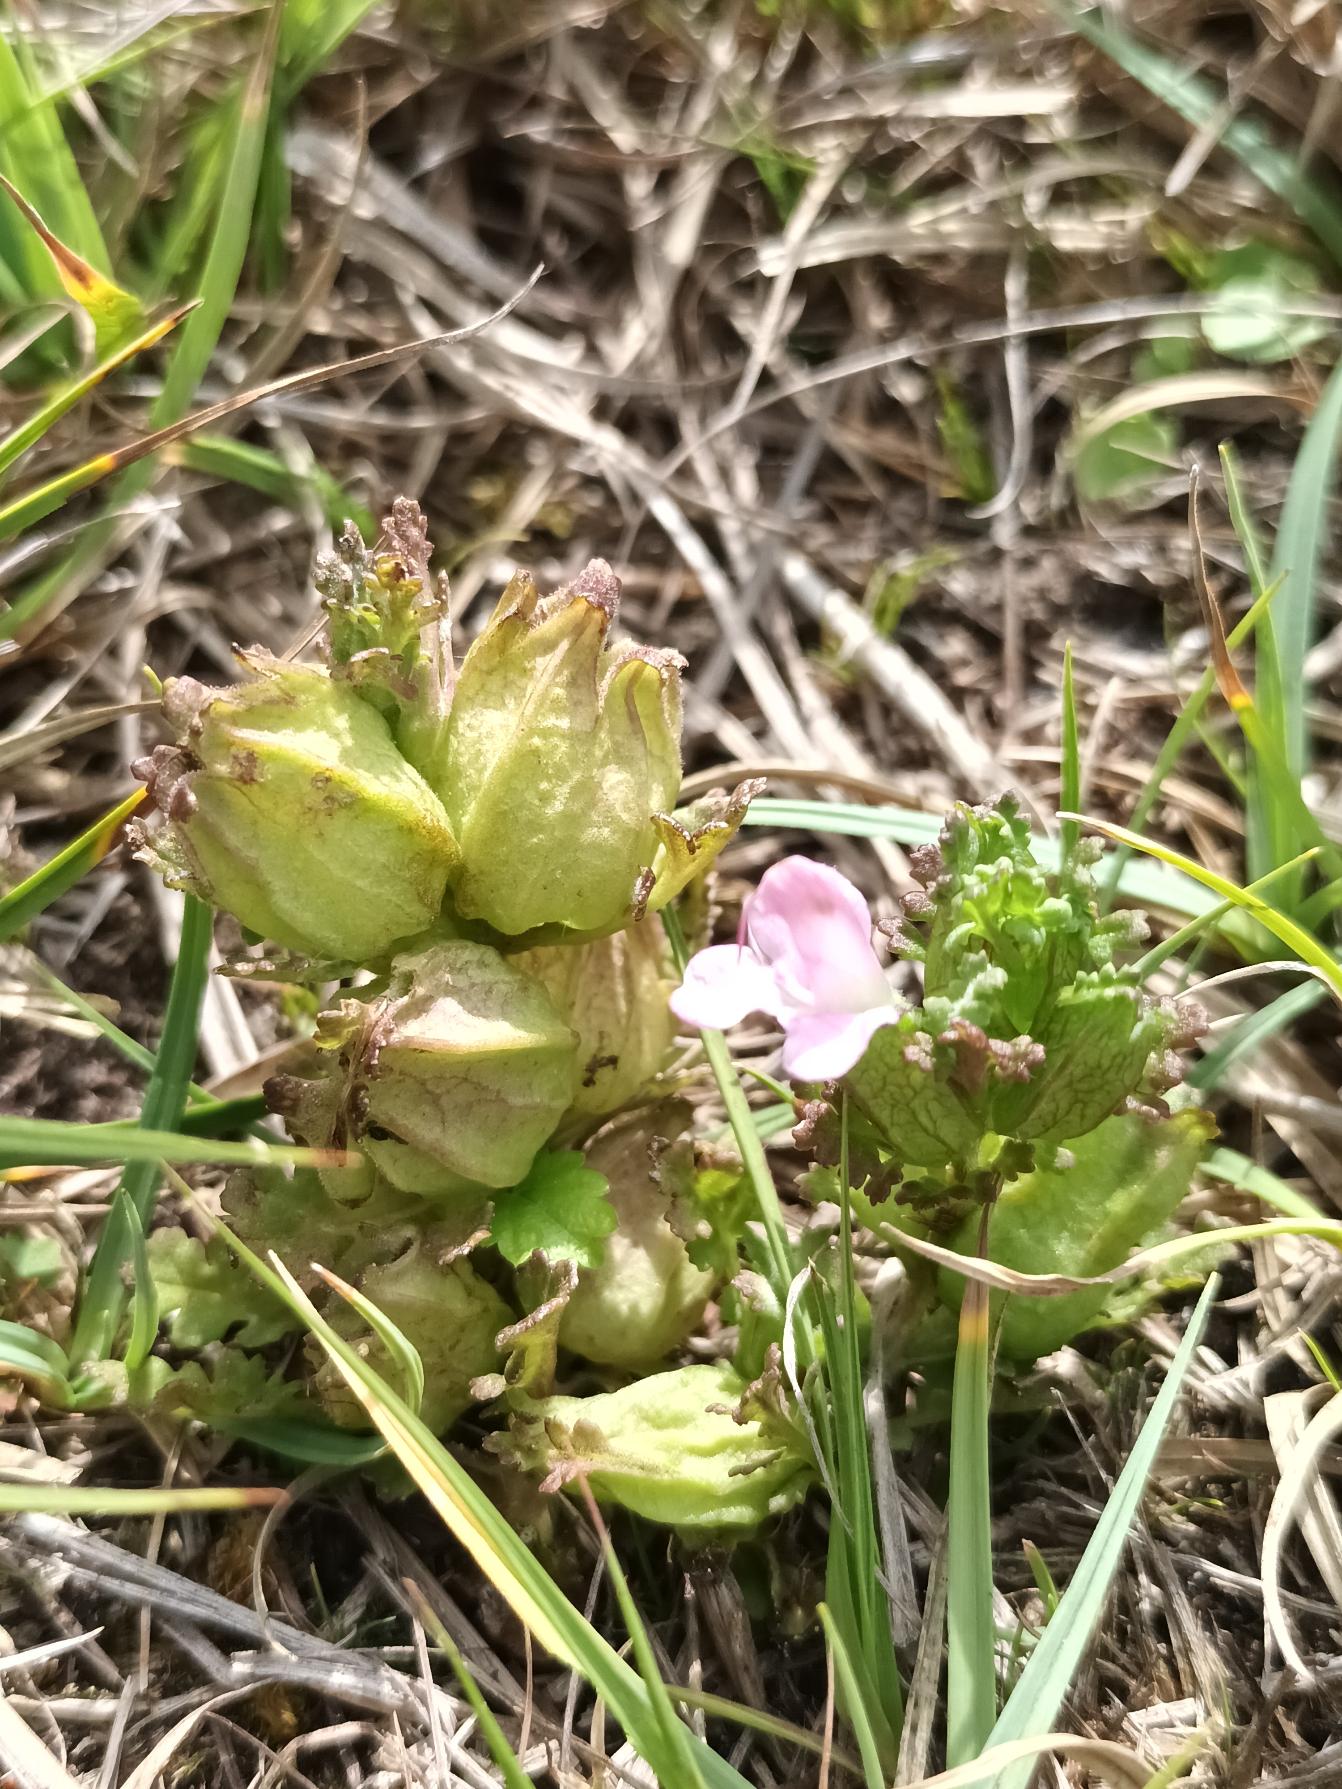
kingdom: Plantae
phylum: Tracheophyta
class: Magnoliopsida
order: Lamiales
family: Orobanchaceae
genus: Pedicularis
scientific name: Pedicularis sylvatica
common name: Mose-troldurt
